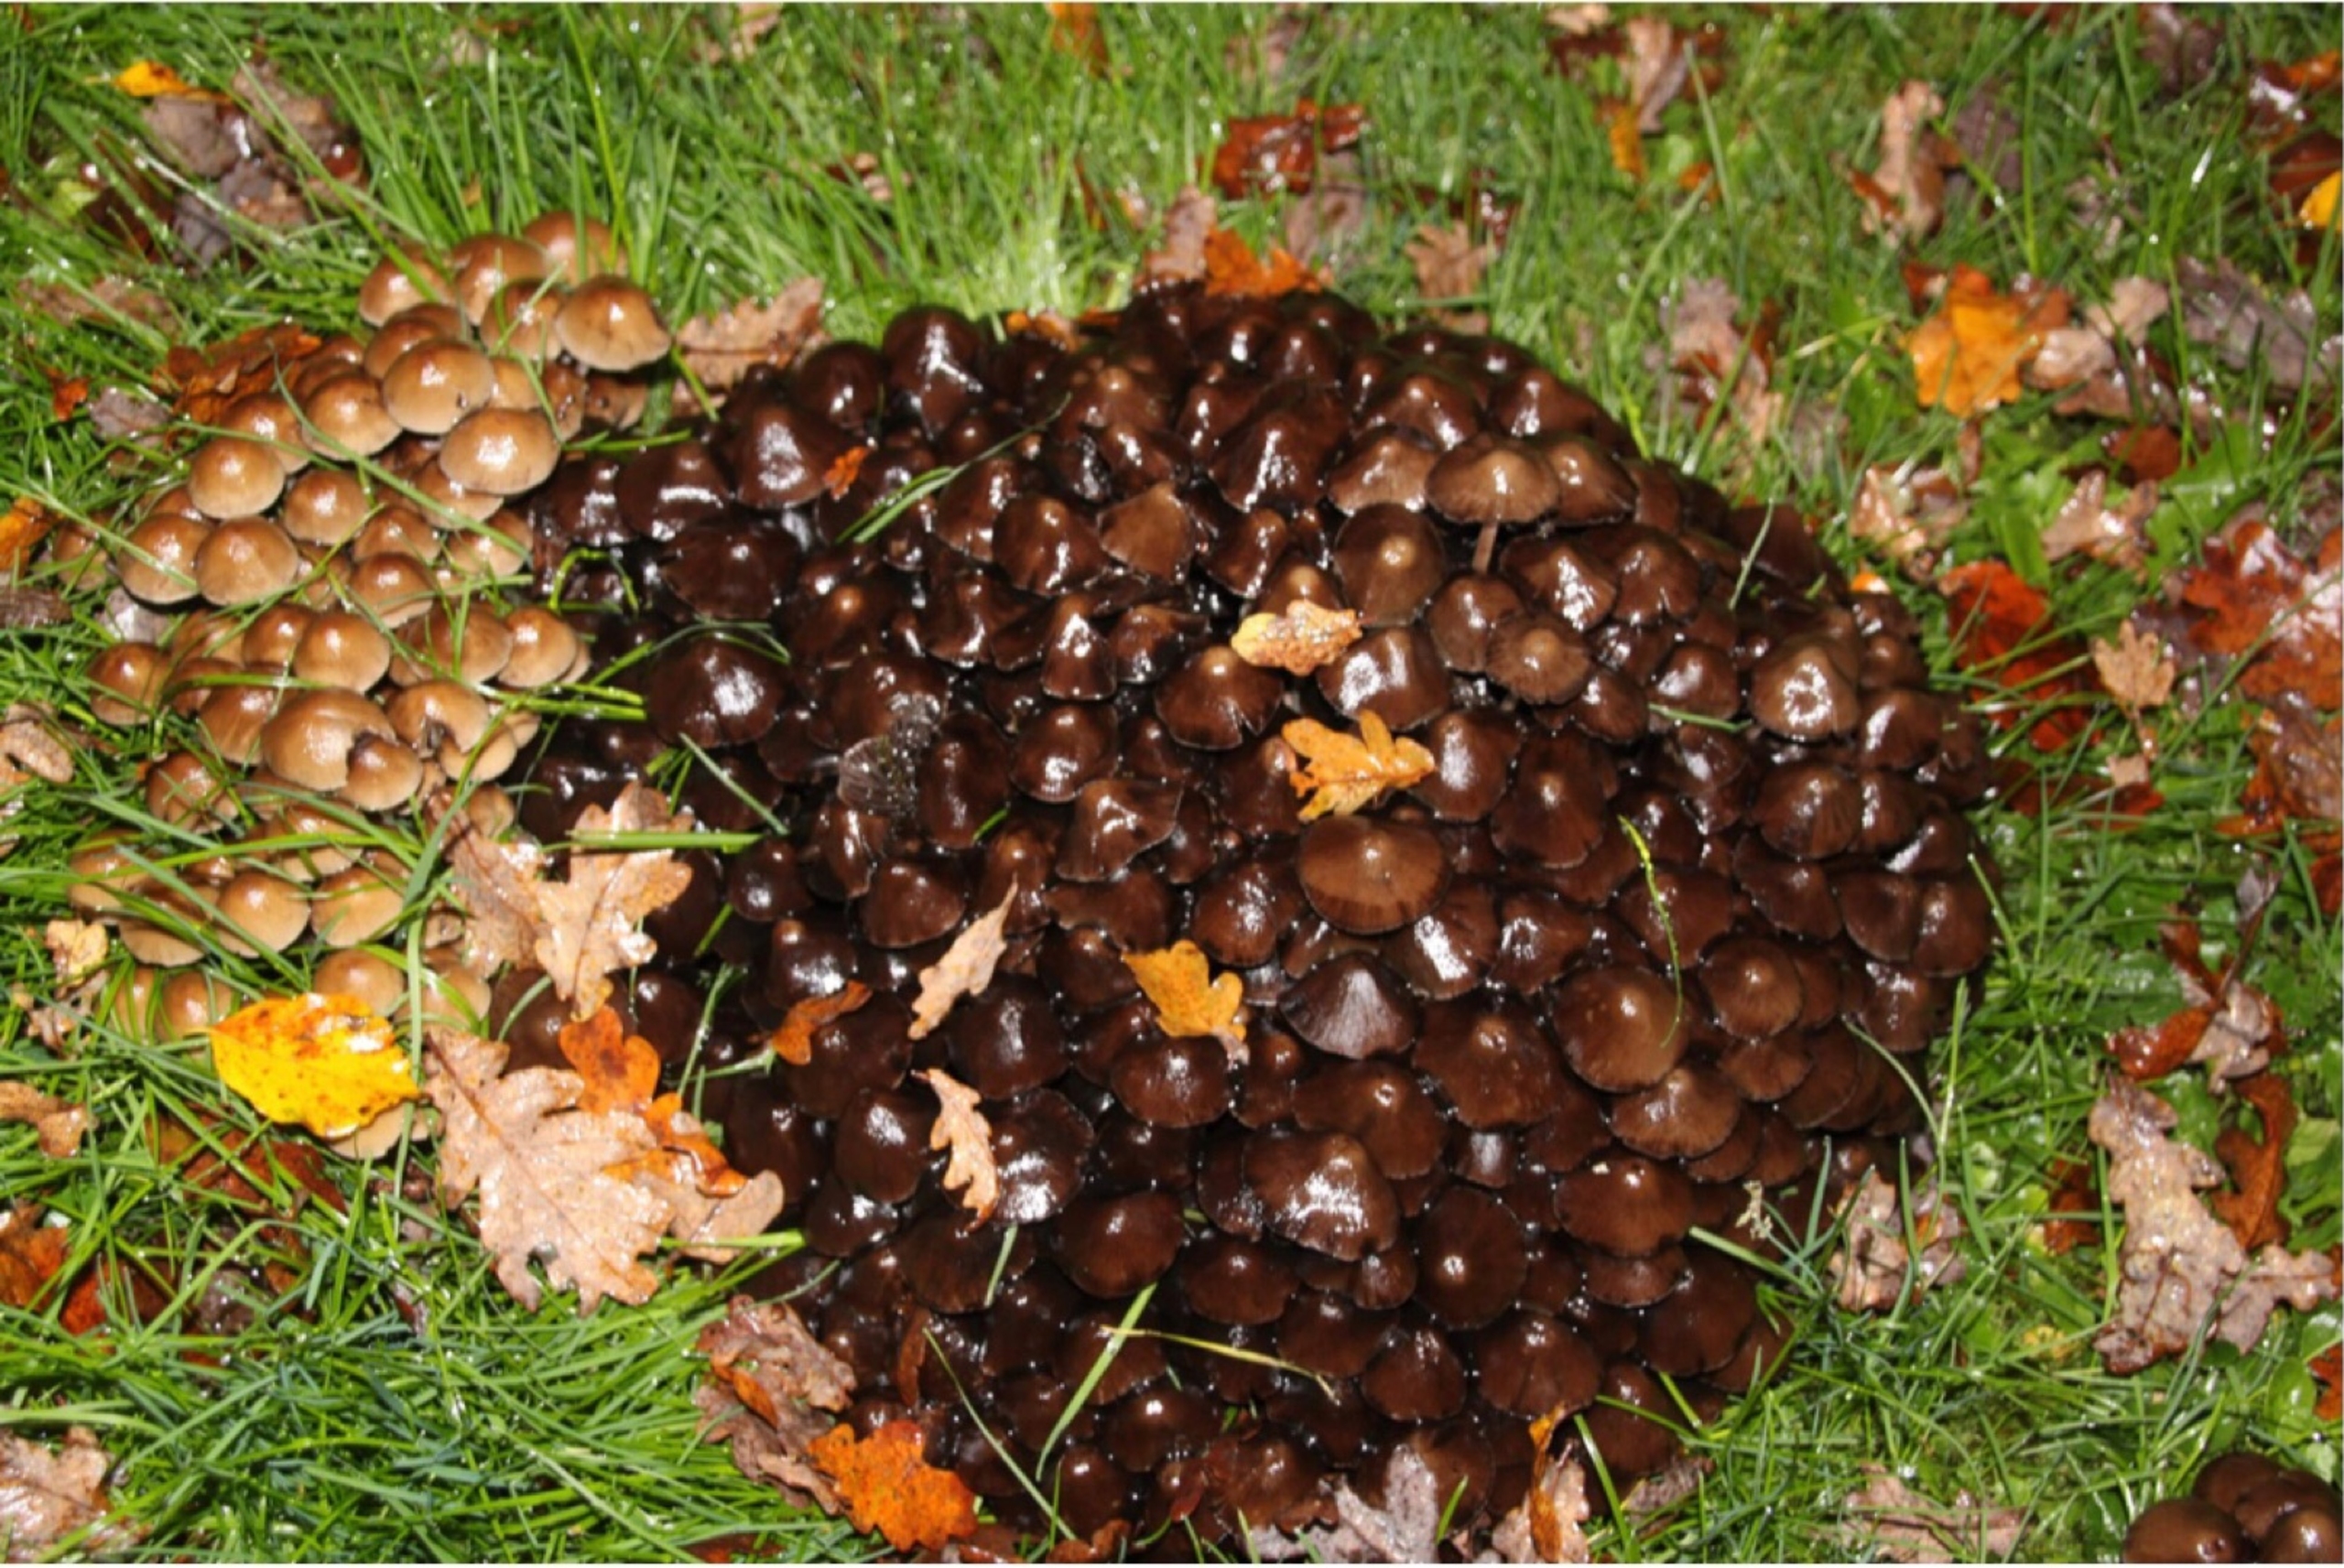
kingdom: Fungi
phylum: Basidiomycota
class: Agaricomycetes
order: Agaricales
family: Psathyrellaceae
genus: Britzelmayria
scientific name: Britzelmayria multipedata
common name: Knippe-mørkhat
